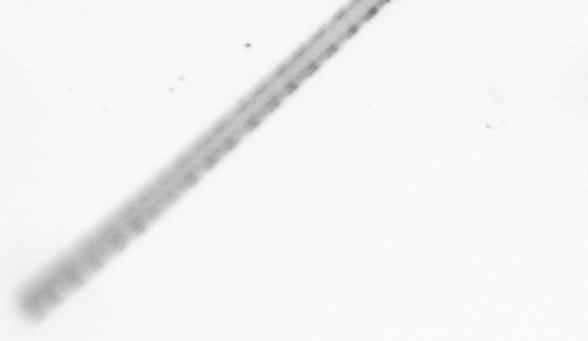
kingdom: Chromista
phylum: Ochrophyta
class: Bacillariophyceae
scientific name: Bacillariophyceae
